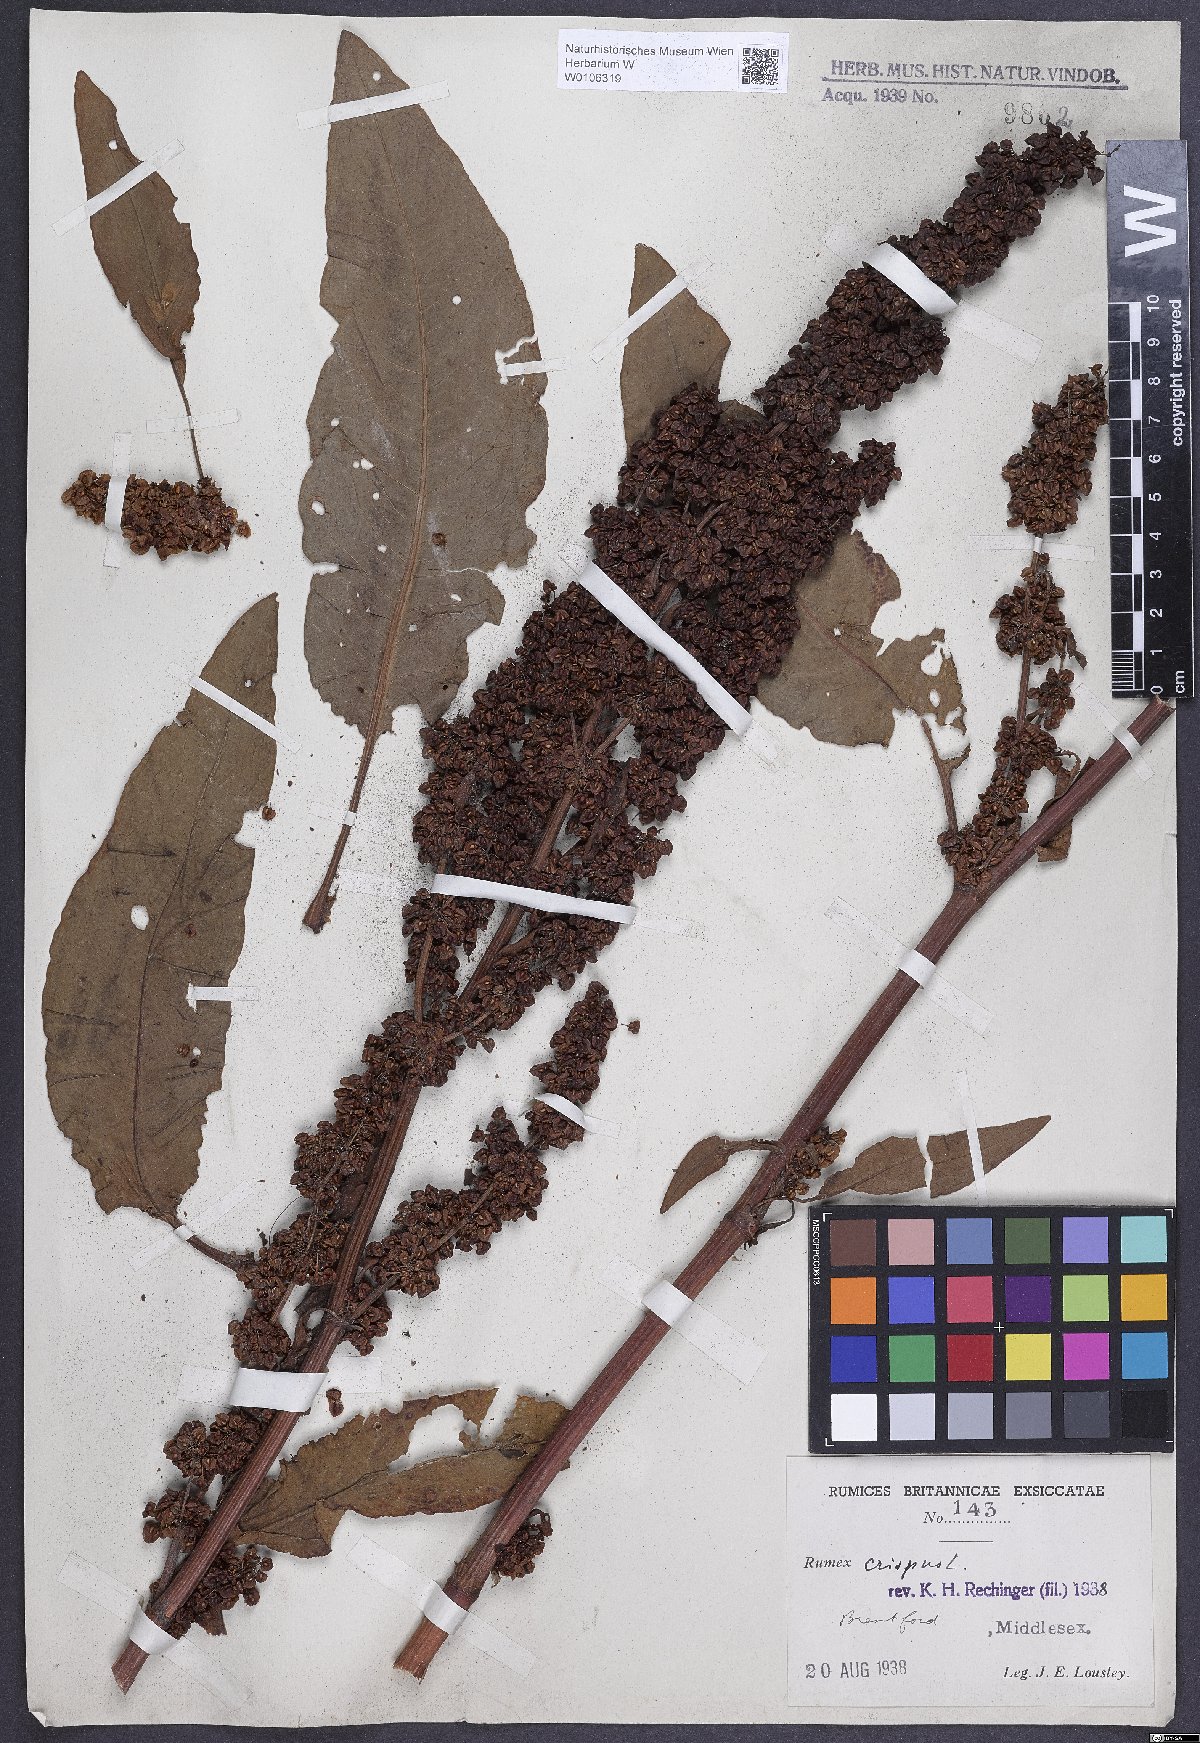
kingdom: Plantae
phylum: Tracheophyta
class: Magnoliopsida
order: Caryophyllales
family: Polygonaceae
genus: Rumex
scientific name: Rumex crispus
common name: Curled dock
